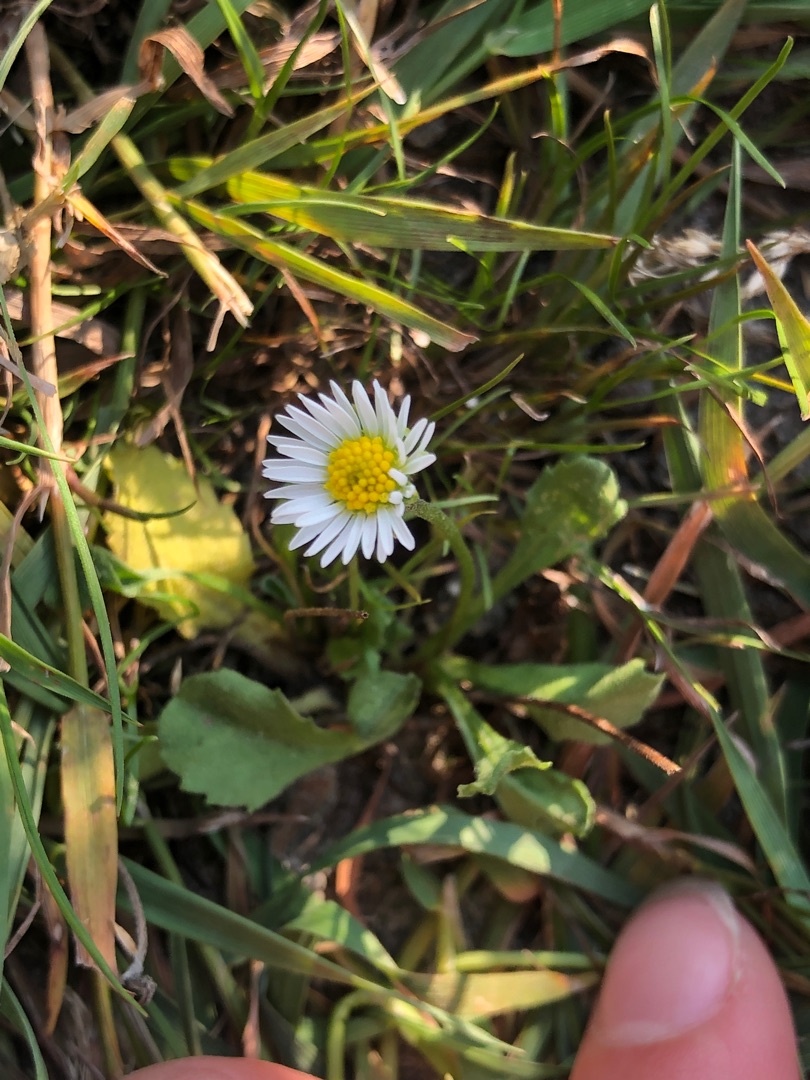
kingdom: Plantae
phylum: Tracheophyta
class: Magnoliopsida
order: Asterales
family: Asteraceae
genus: Bellis
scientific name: Bellis perennis
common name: Tusindfryd
